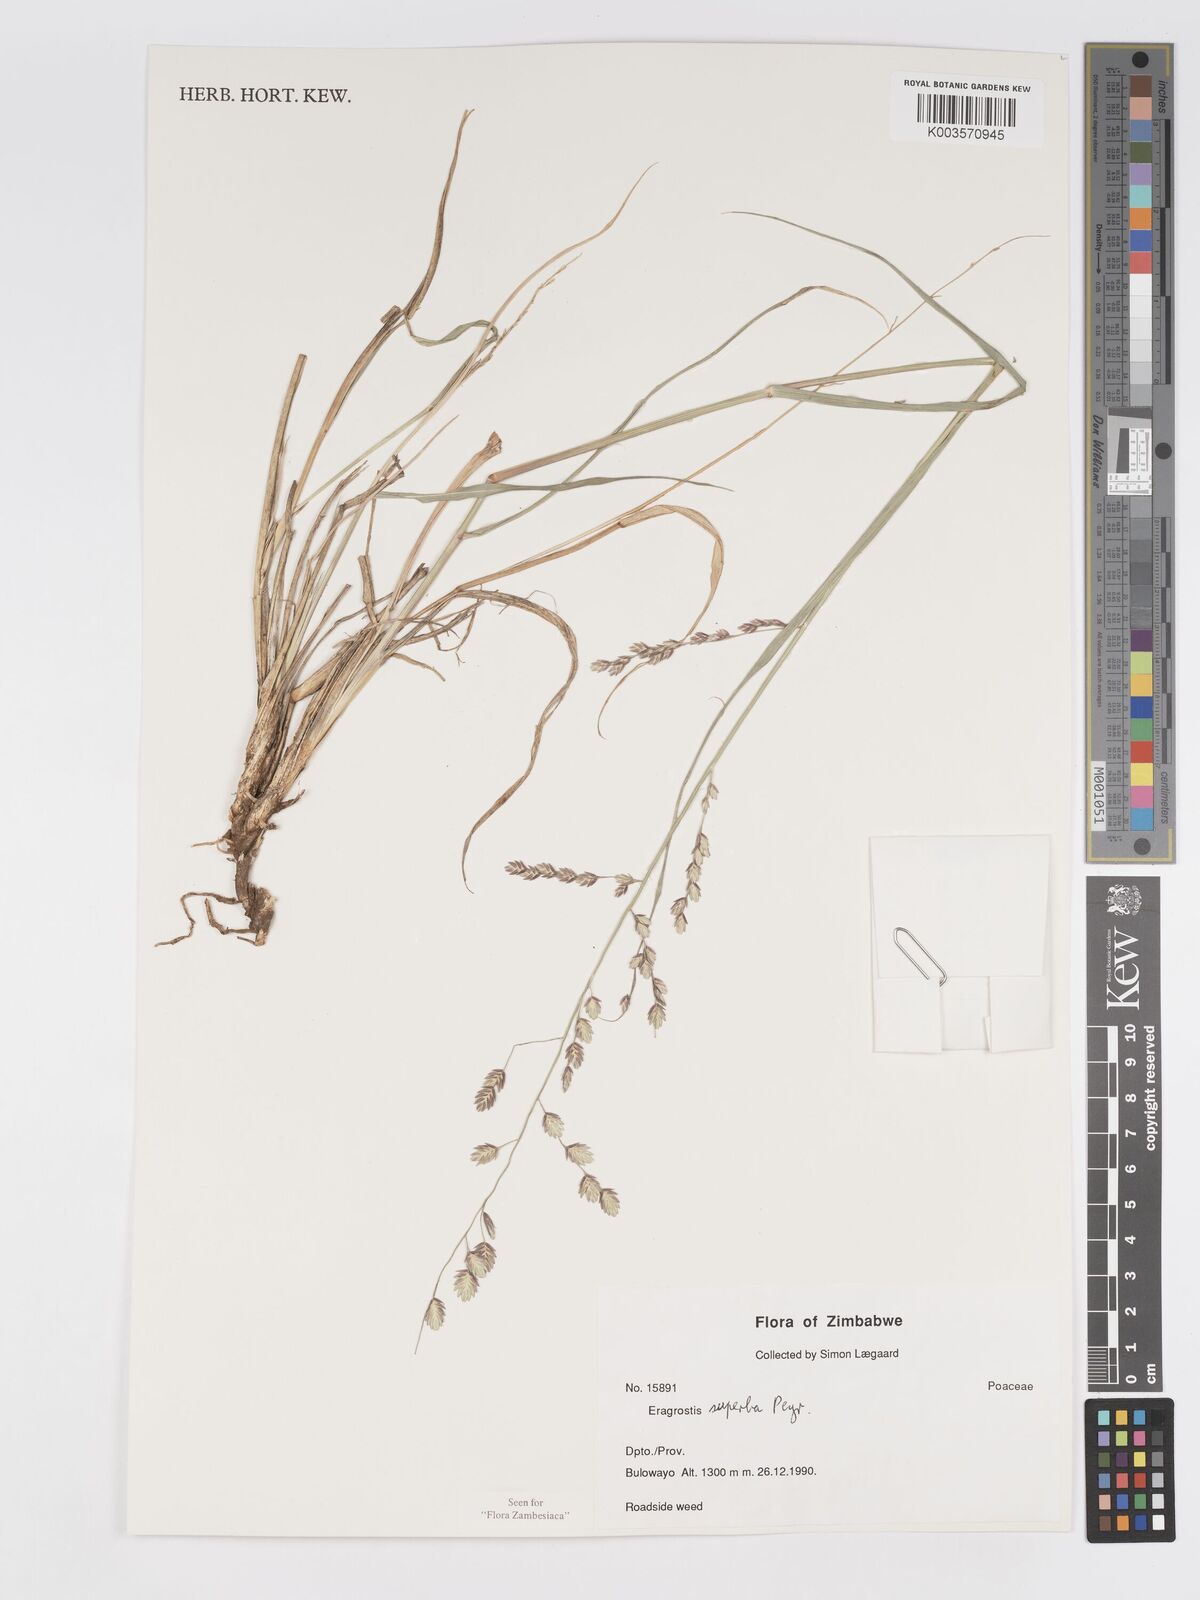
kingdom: Plantae
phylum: Tracheophyta
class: Liliopsida
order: Poales
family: Poaceae
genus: Eragrostis
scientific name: Eragrostis superba
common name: Wilman lovegrass
